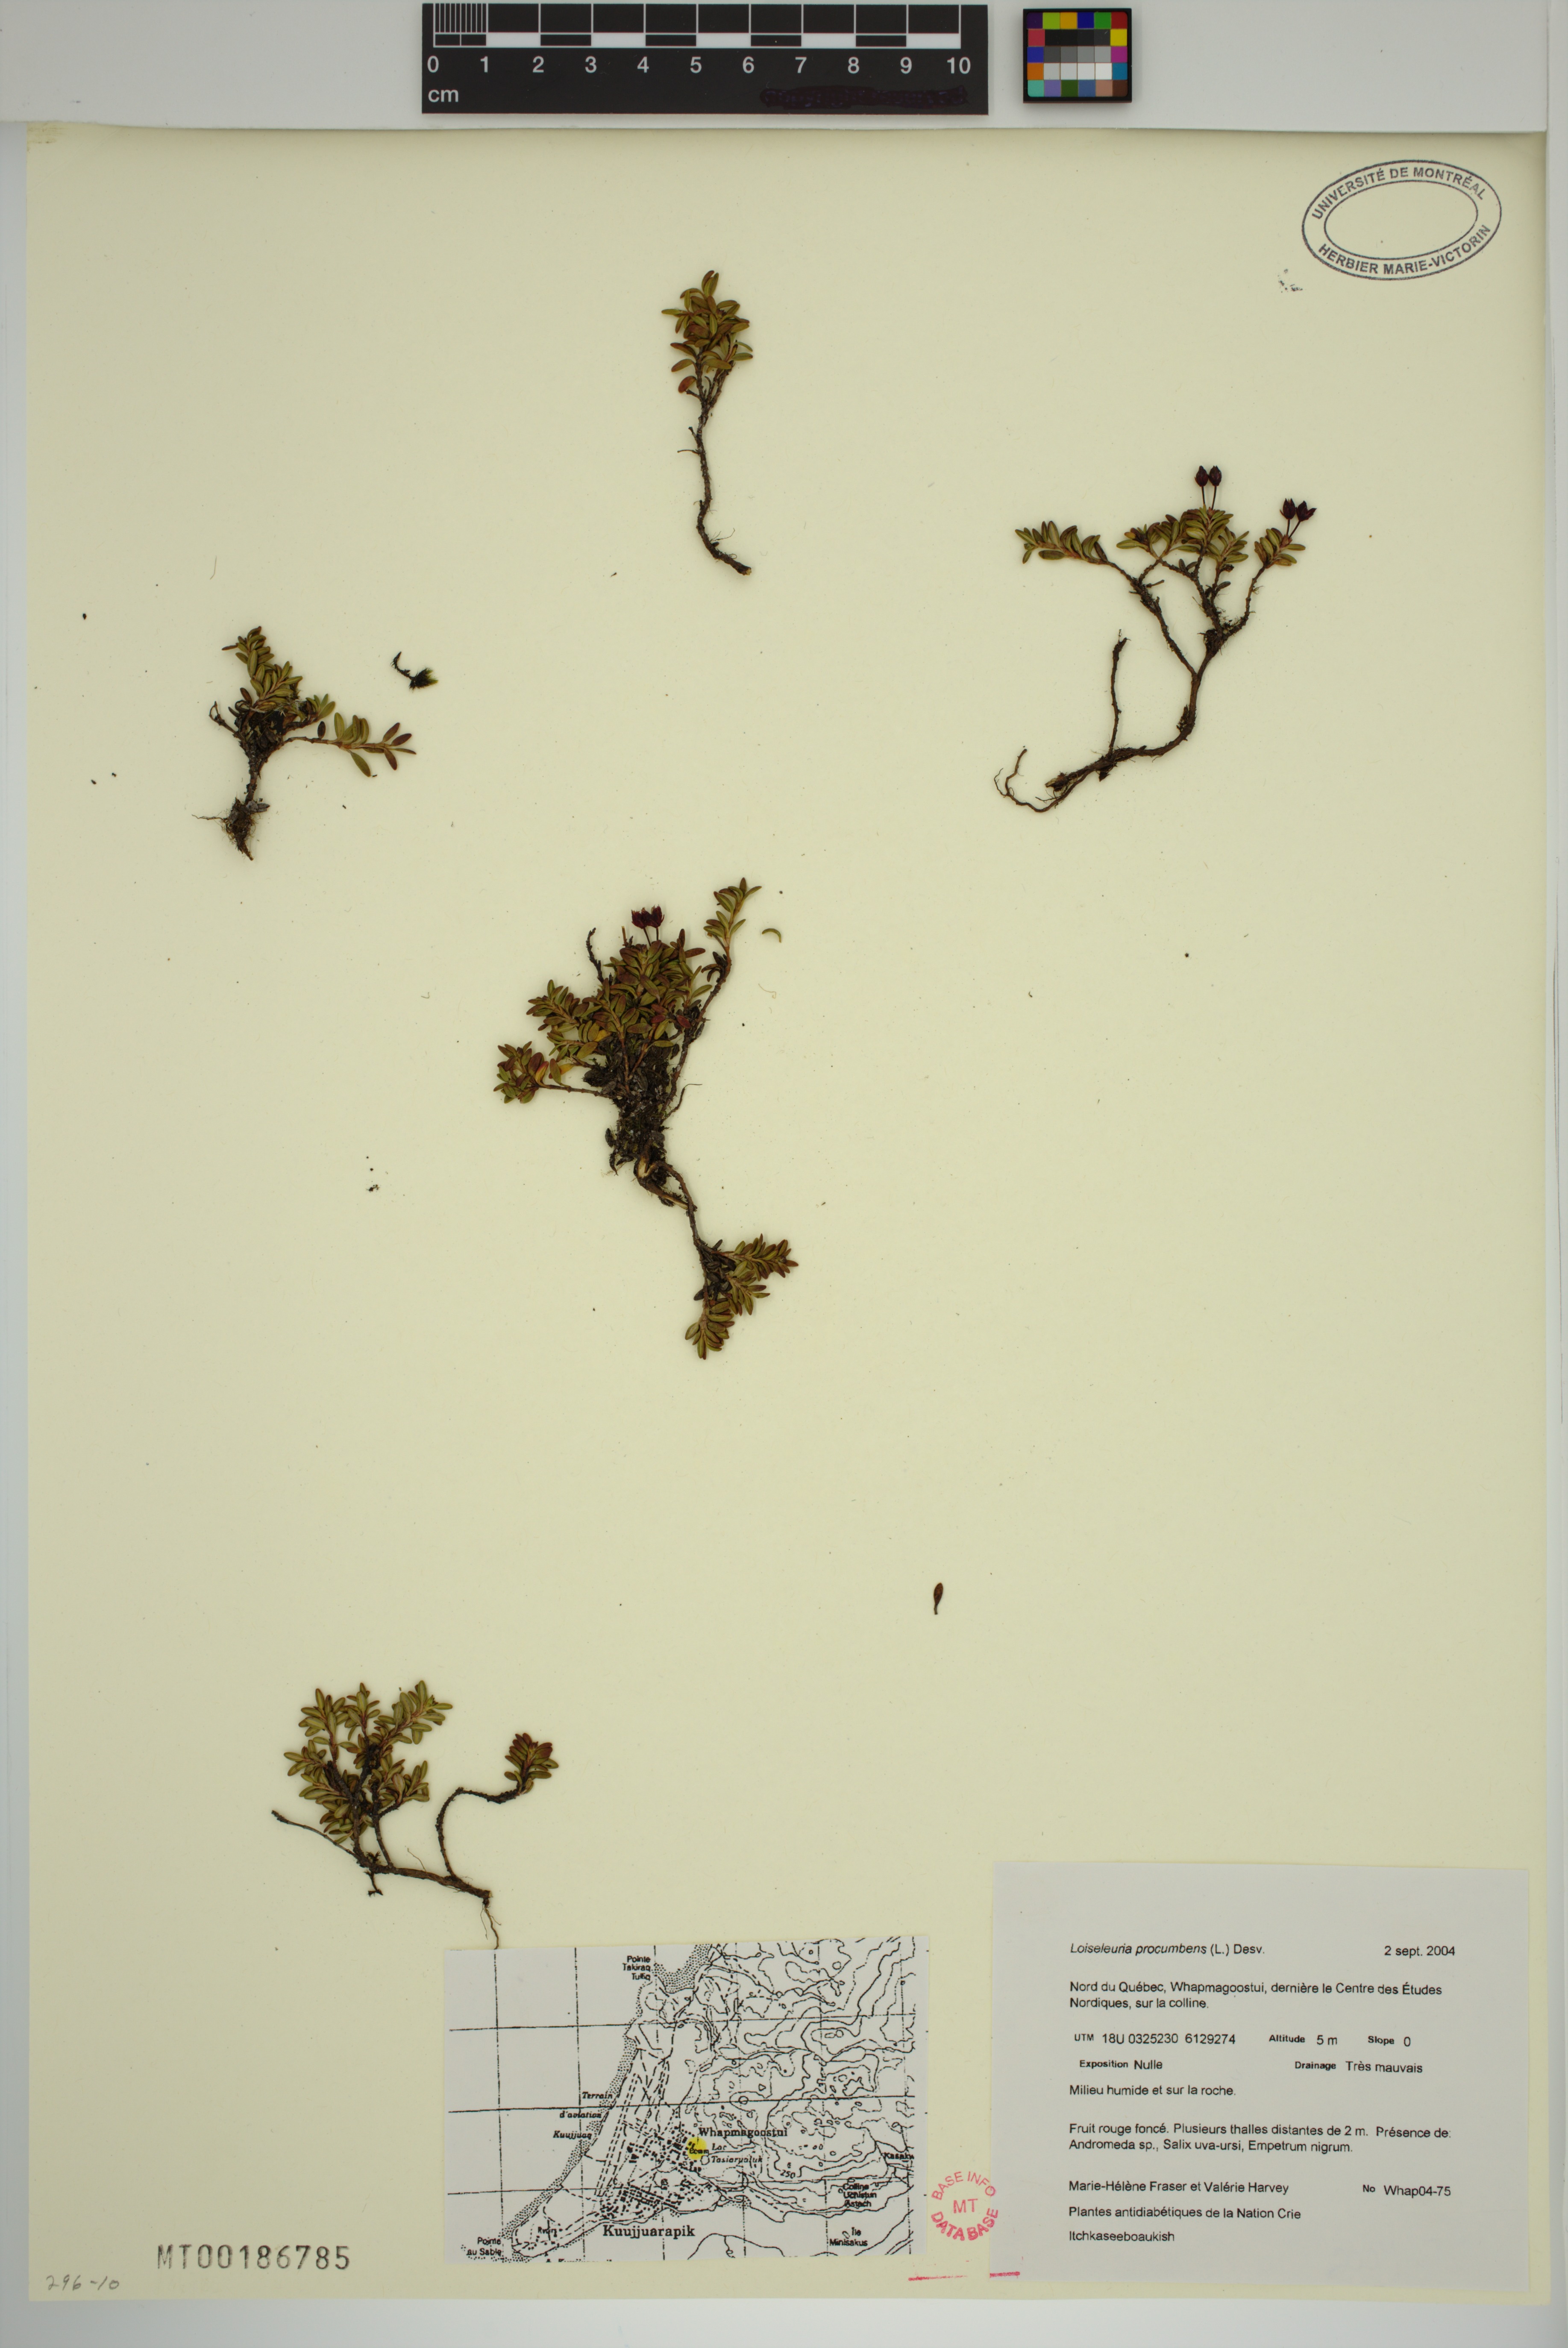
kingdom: Plantae
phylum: Tracheophyta
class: Magnoliopsida
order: Ericales
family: Ericaceae
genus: Kalmia
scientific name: Kalmia procumbens
